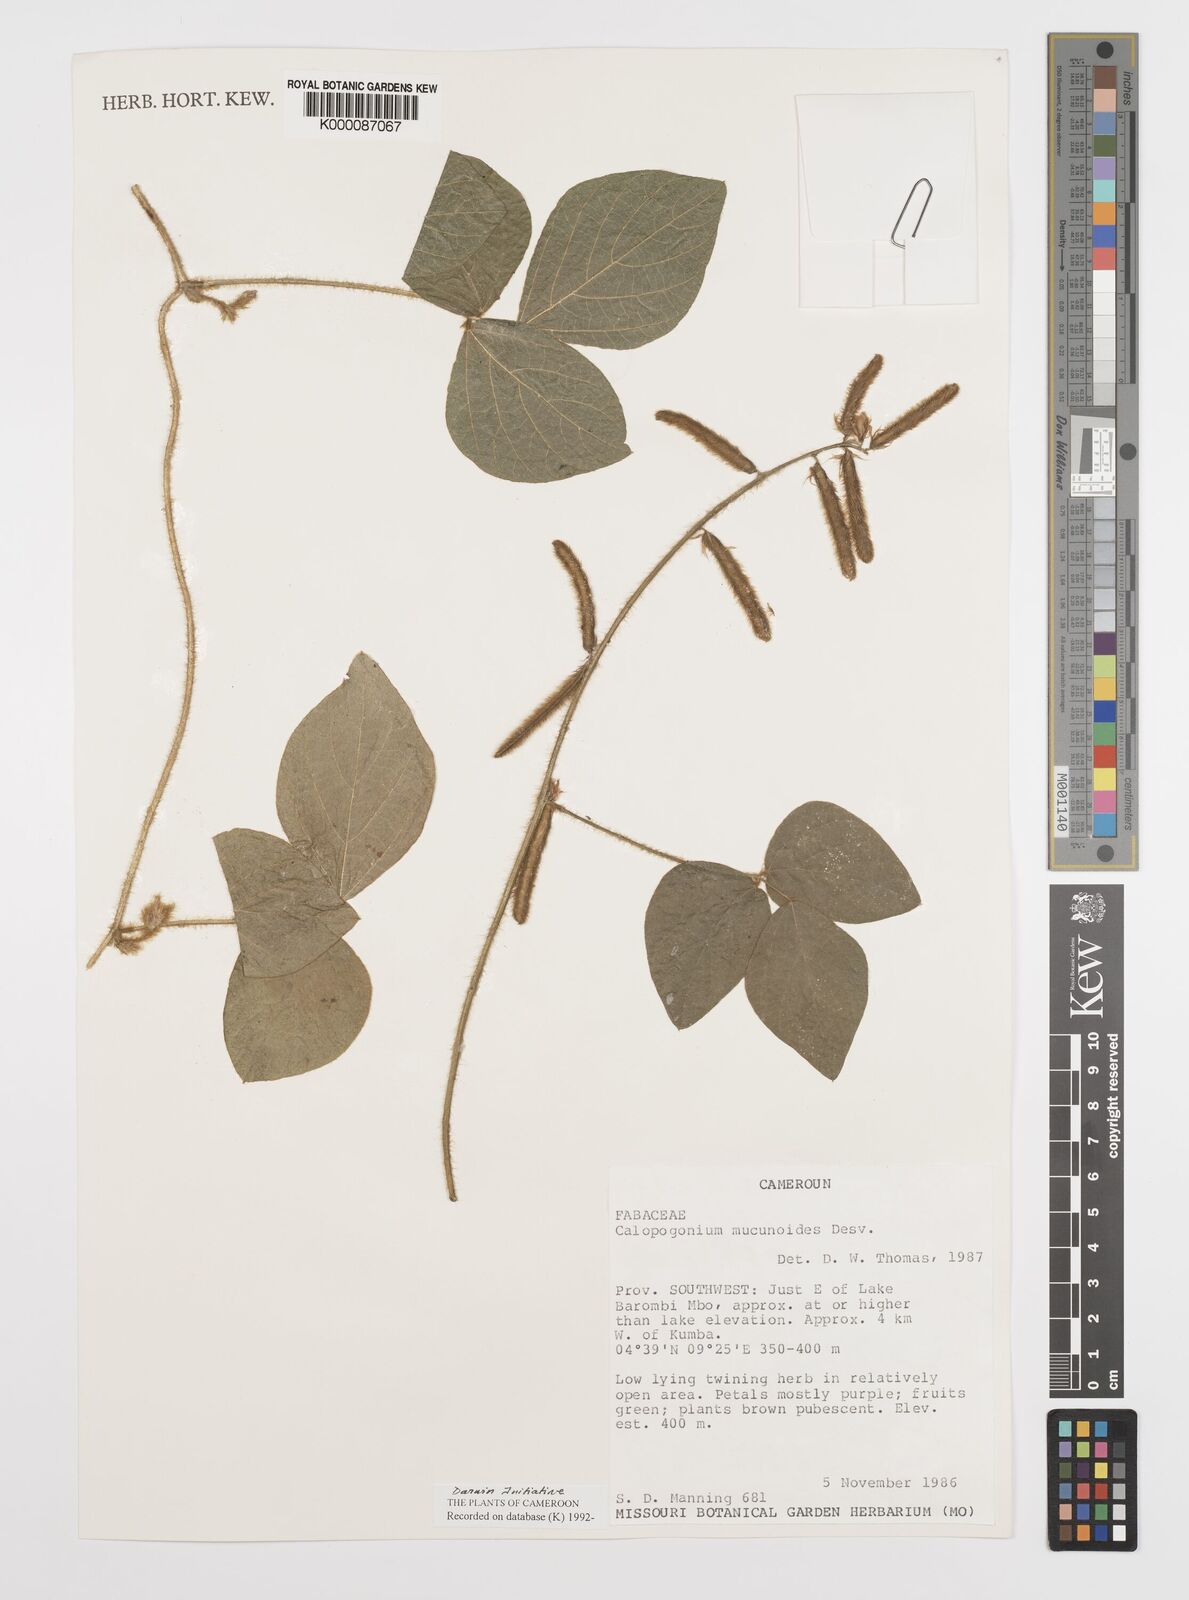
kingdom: Plantae
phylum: Tracheophyta
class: Magnoliopsida
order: Fabales
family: Fabaceae
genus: Calopogonium
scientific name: Calopogonium mucunoides
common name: Calopo
